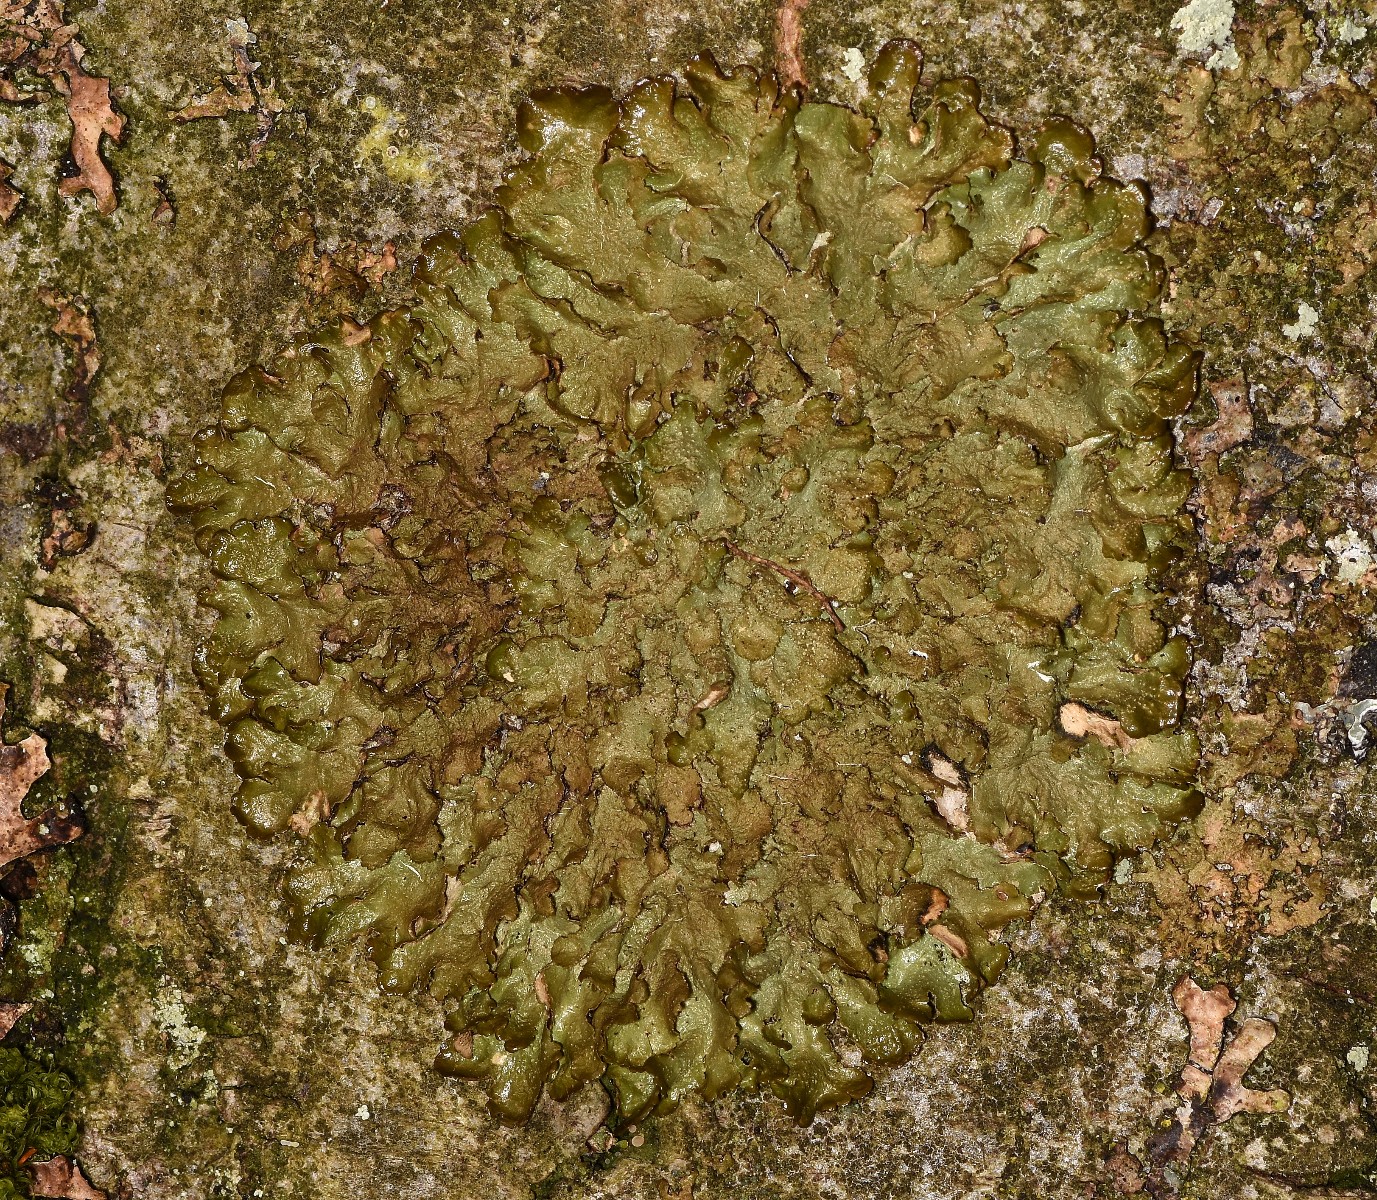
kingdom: Fungi
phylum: Ascomycota
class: Lecanoromycetes
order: Lecanorales
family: Parmeliaceae
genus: Melanelixia
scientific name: Melanelixia glabratula
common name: glinsende skållav
